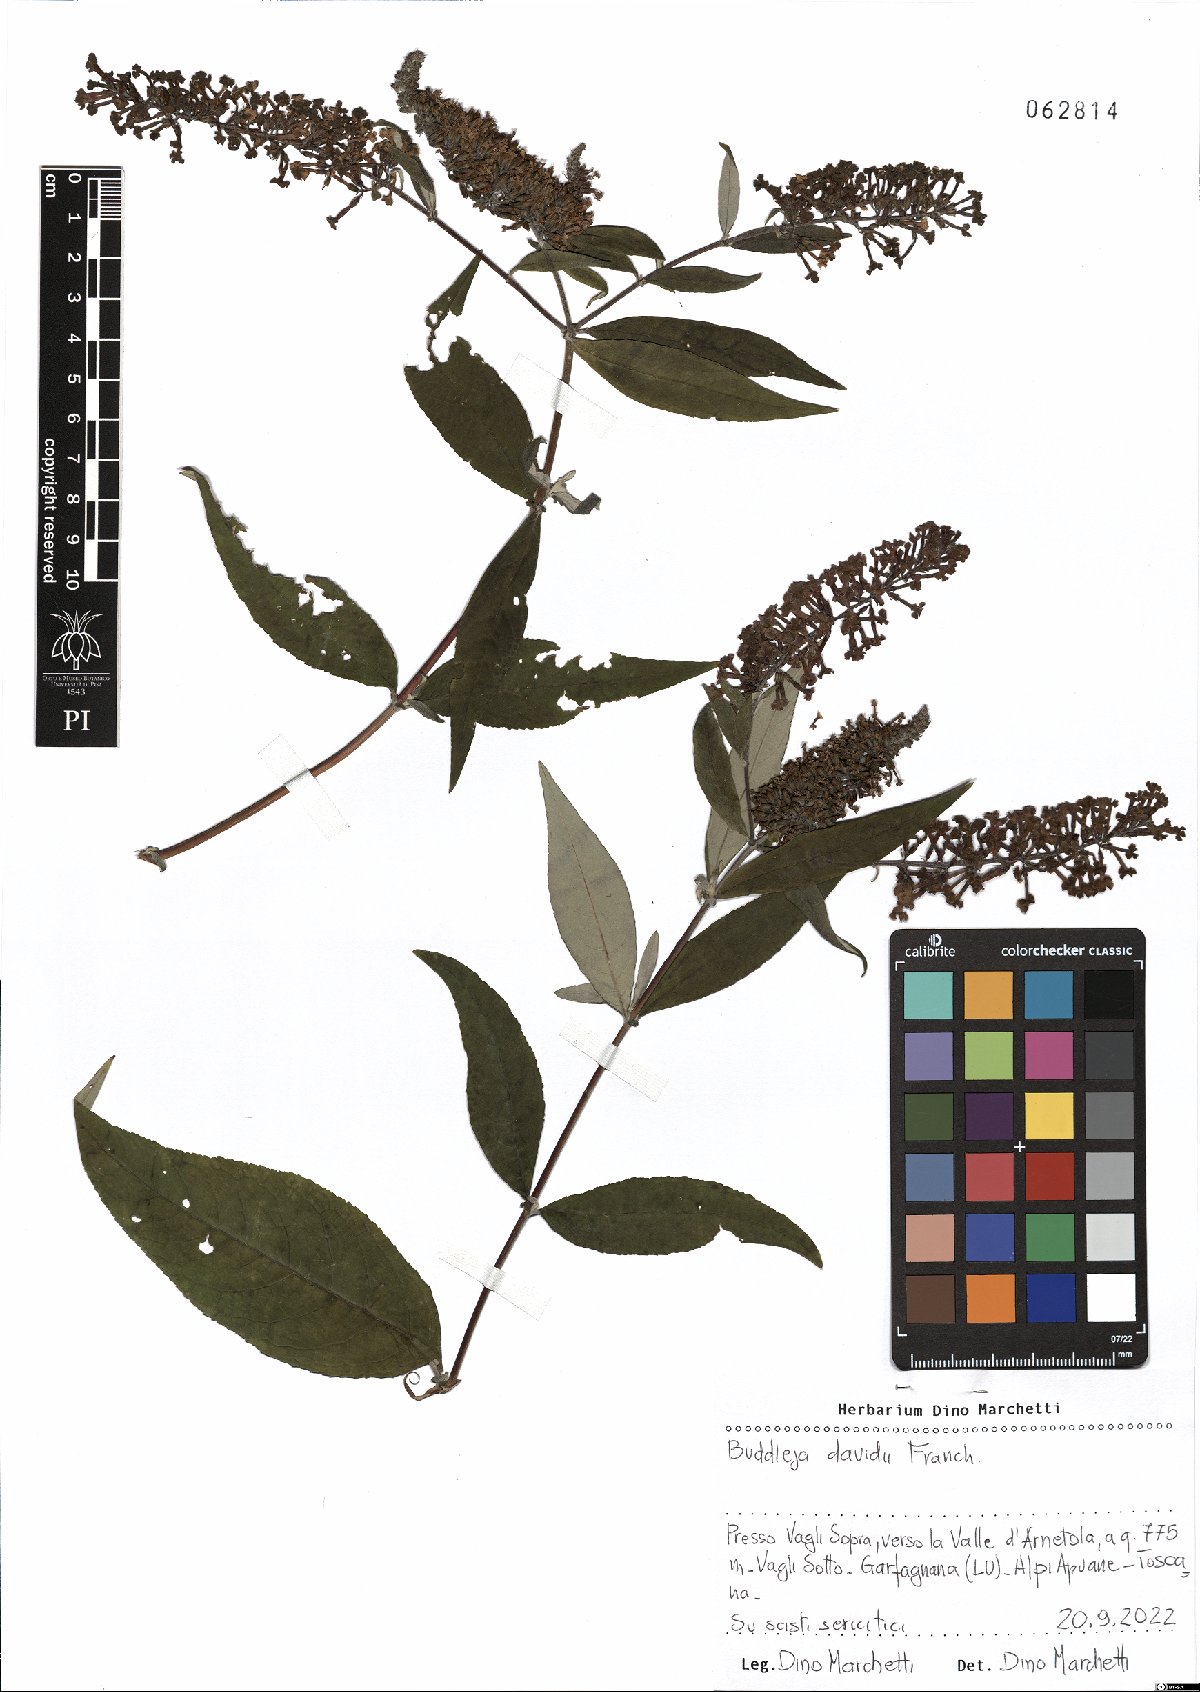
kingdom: Plantae
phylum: Tracheophyta
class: Magnoliopsida
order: Lamiales
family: Scrophulariaceae
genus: Buddleja
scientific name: Buddleja davidii
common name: Butterfly-bush
